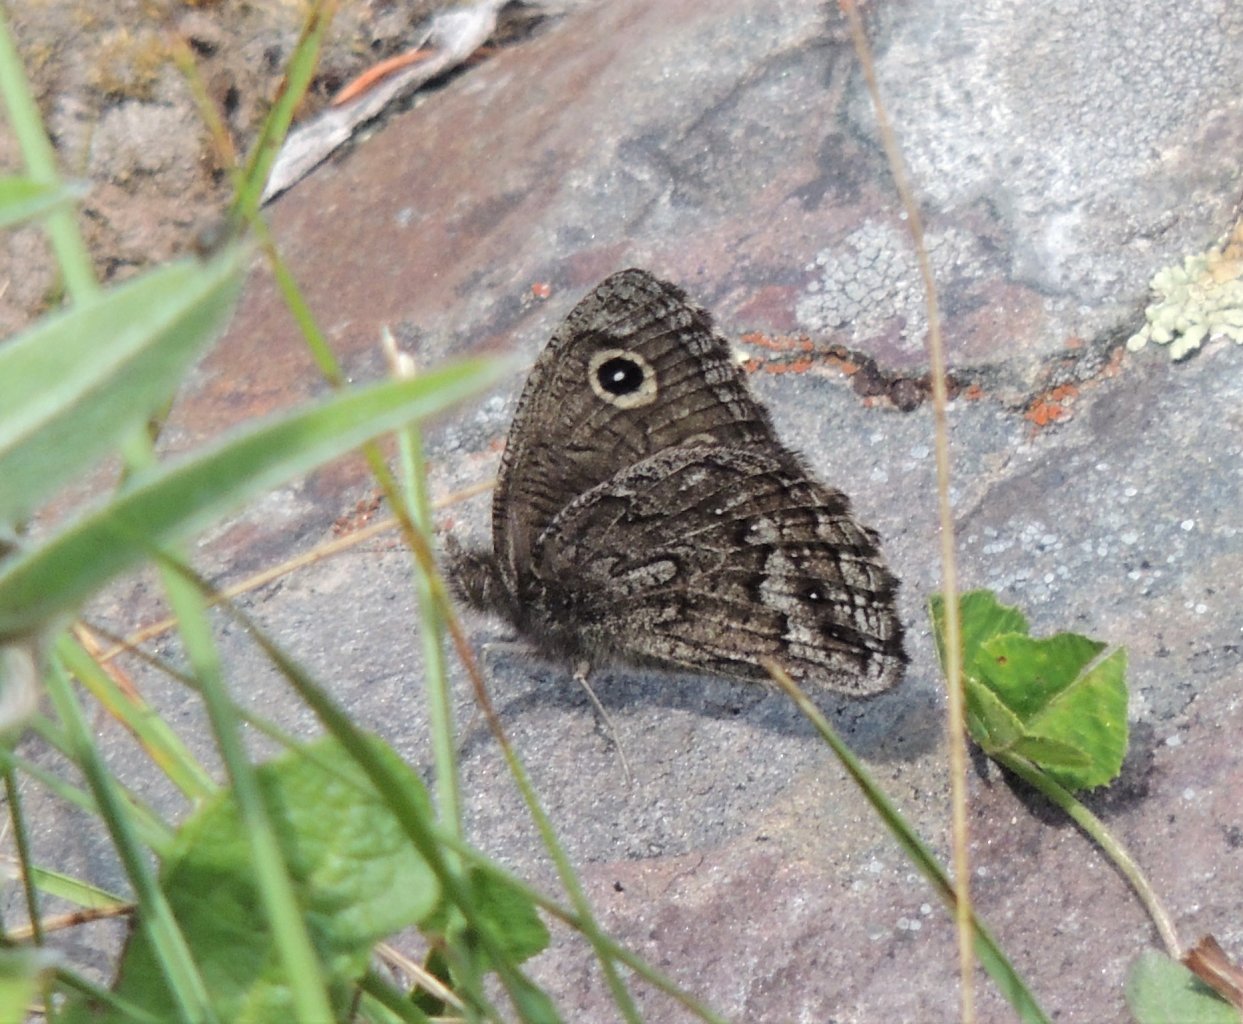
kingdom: Animalia
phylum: Arthropoda
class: Insecta
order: Lepidoptera
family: Nymphalidae
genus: Cercyonis
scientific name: Cercyonis oetus
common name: Small Wood-Nymph
